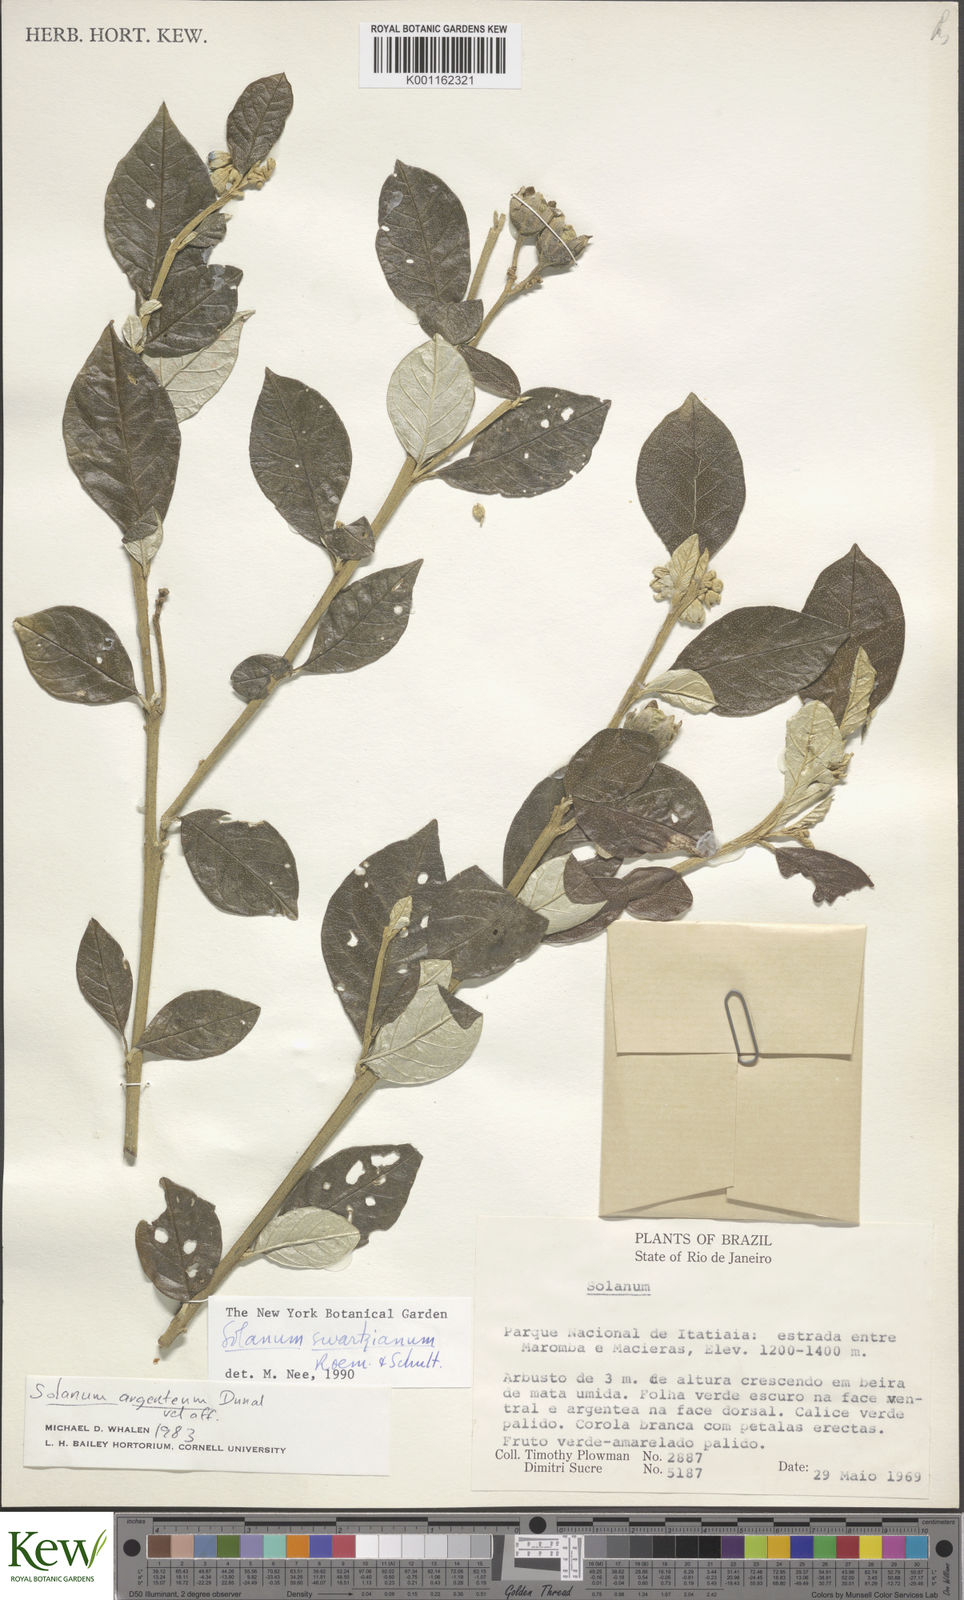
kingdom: Plantae
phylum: Tracheophyta
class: Magnoliopsida
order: Solanales
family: Solanaceae
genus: Solanum
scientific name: Solanum swartzianum
